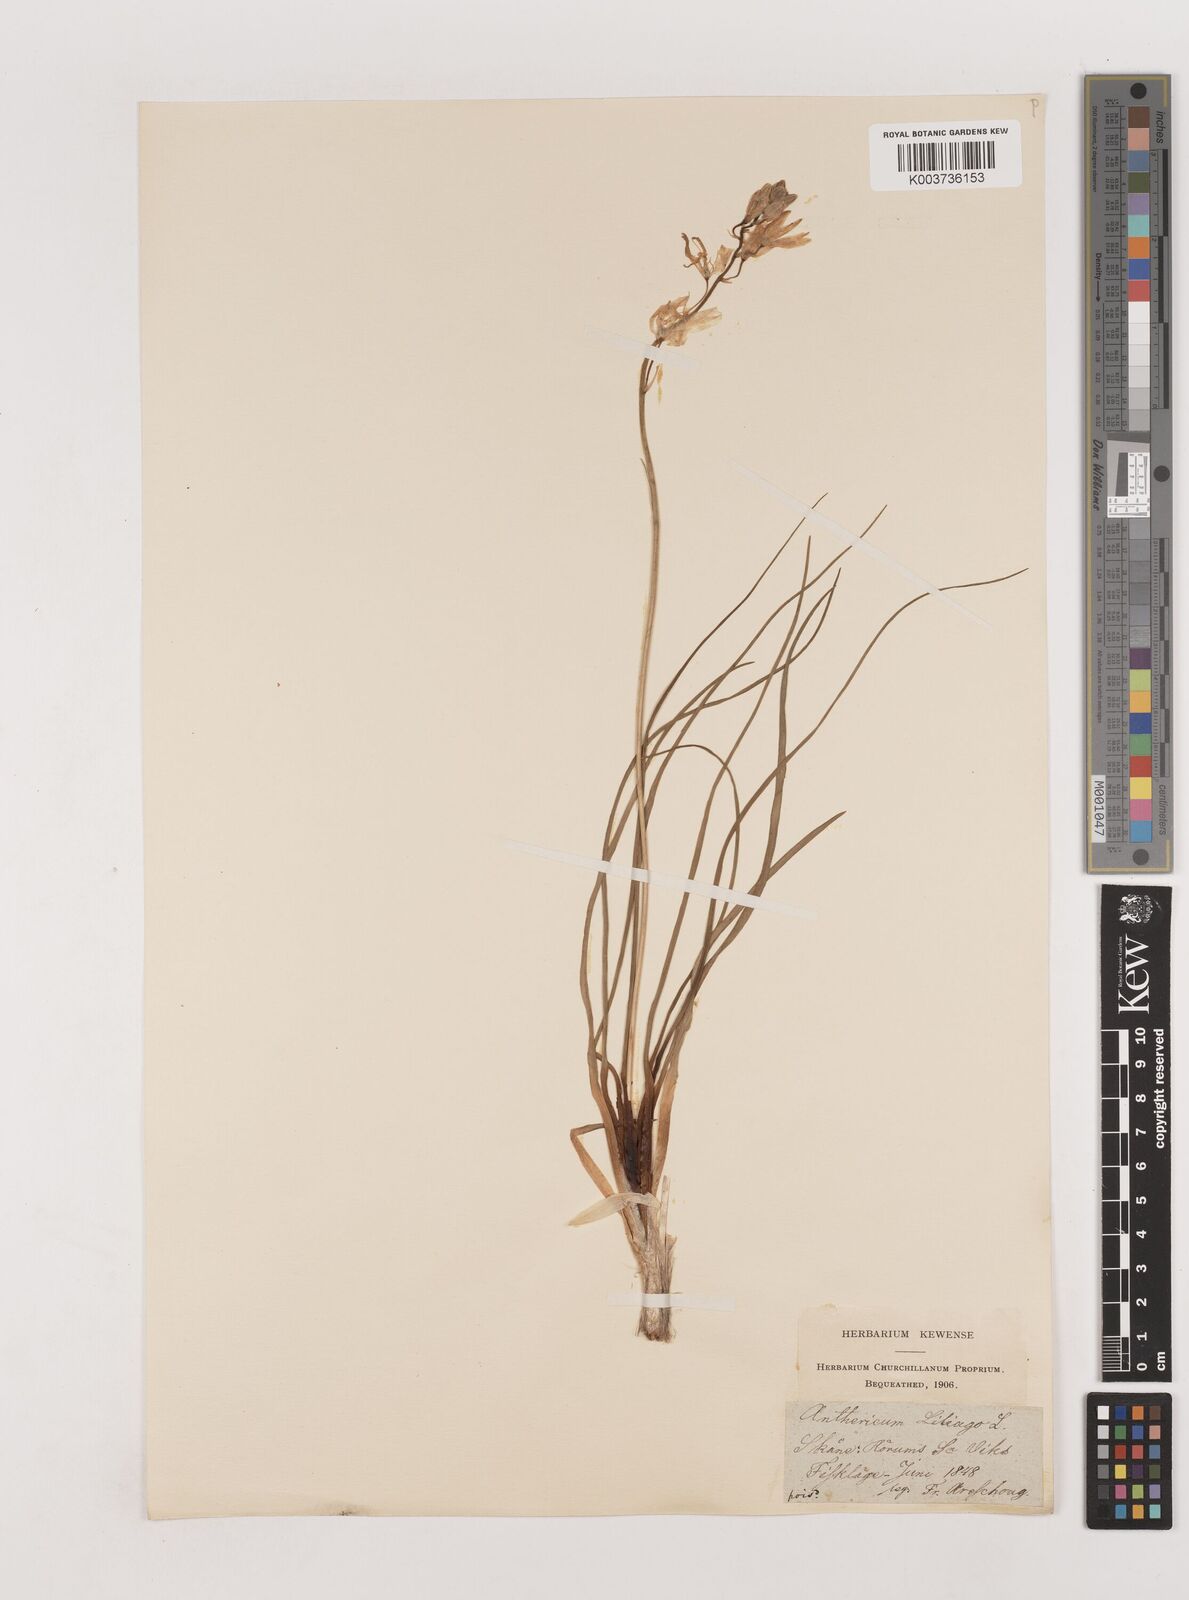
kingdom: Plantae
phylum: Tracheophyta
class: Liliopsida
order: Asparagales
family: Asparagaceae
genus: Anthericum
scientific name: Anthericum liliago
